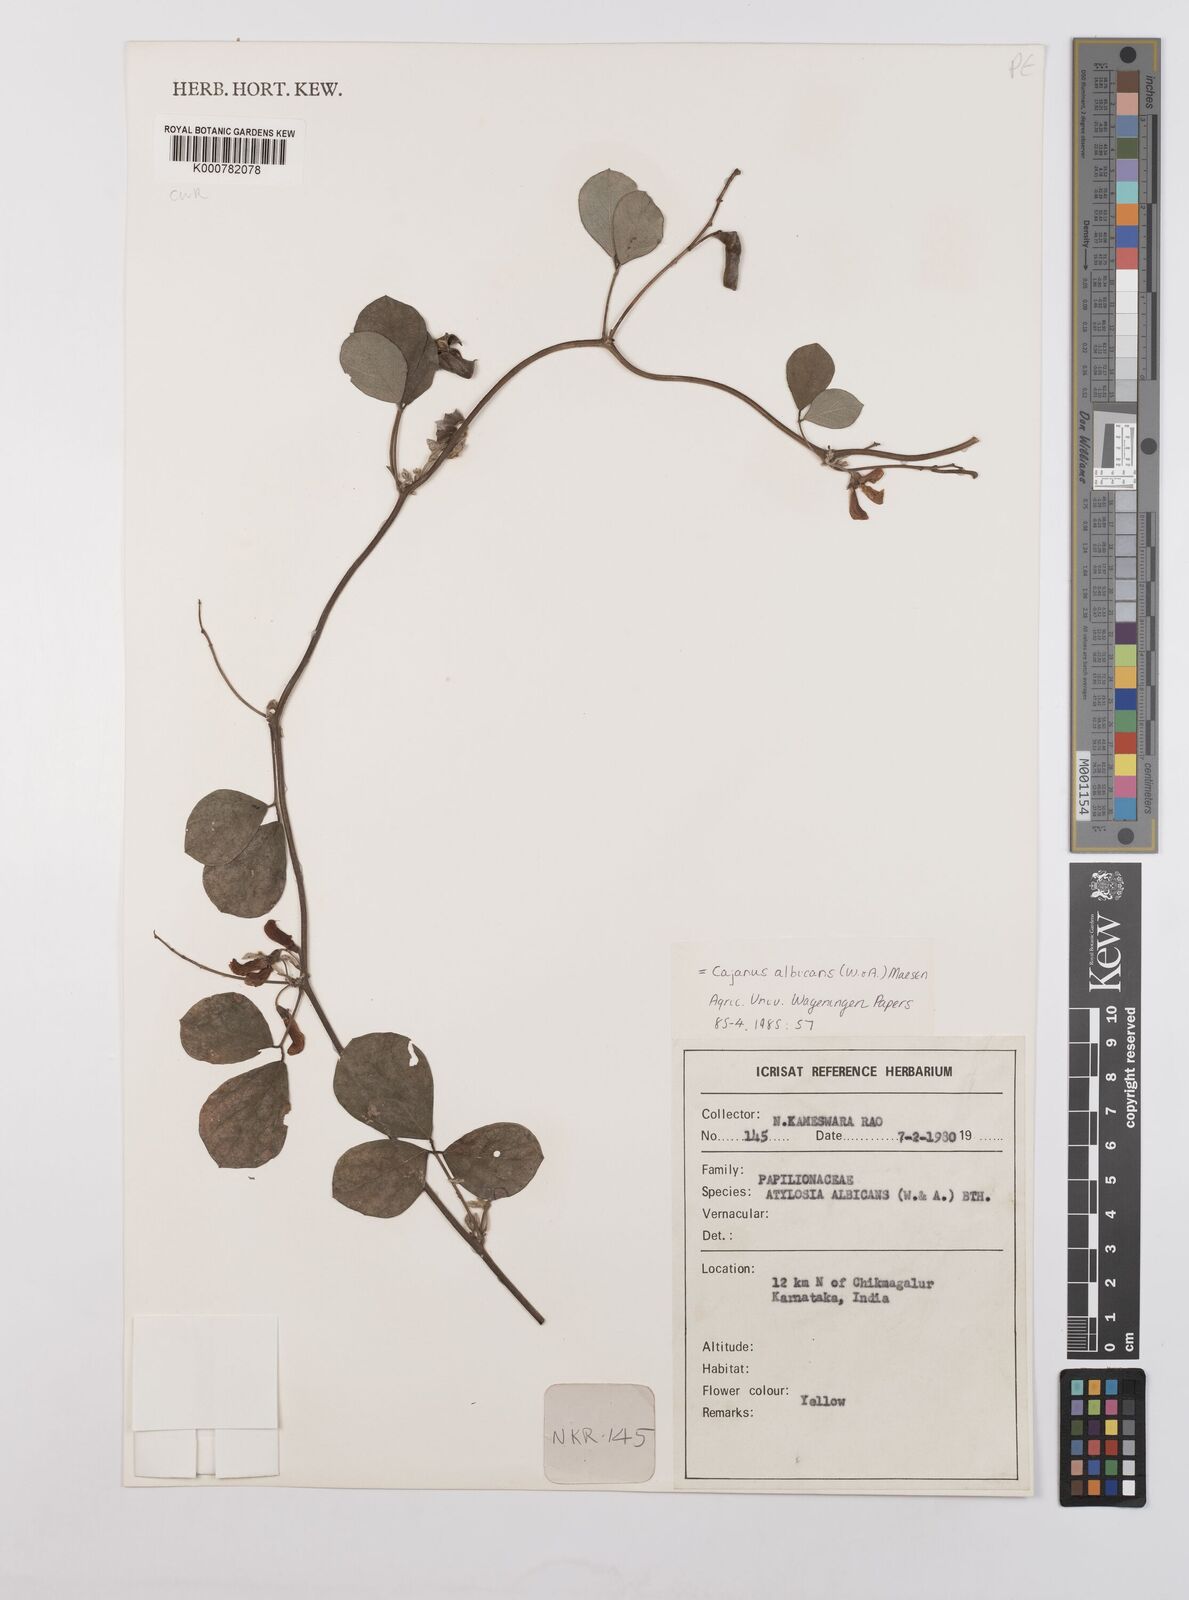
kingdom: Plantae
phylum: Tracheophyta
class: Magnoliopsida
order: Fabales
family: Fabaceae
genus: Cajanus
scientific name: Cajanus albicans
